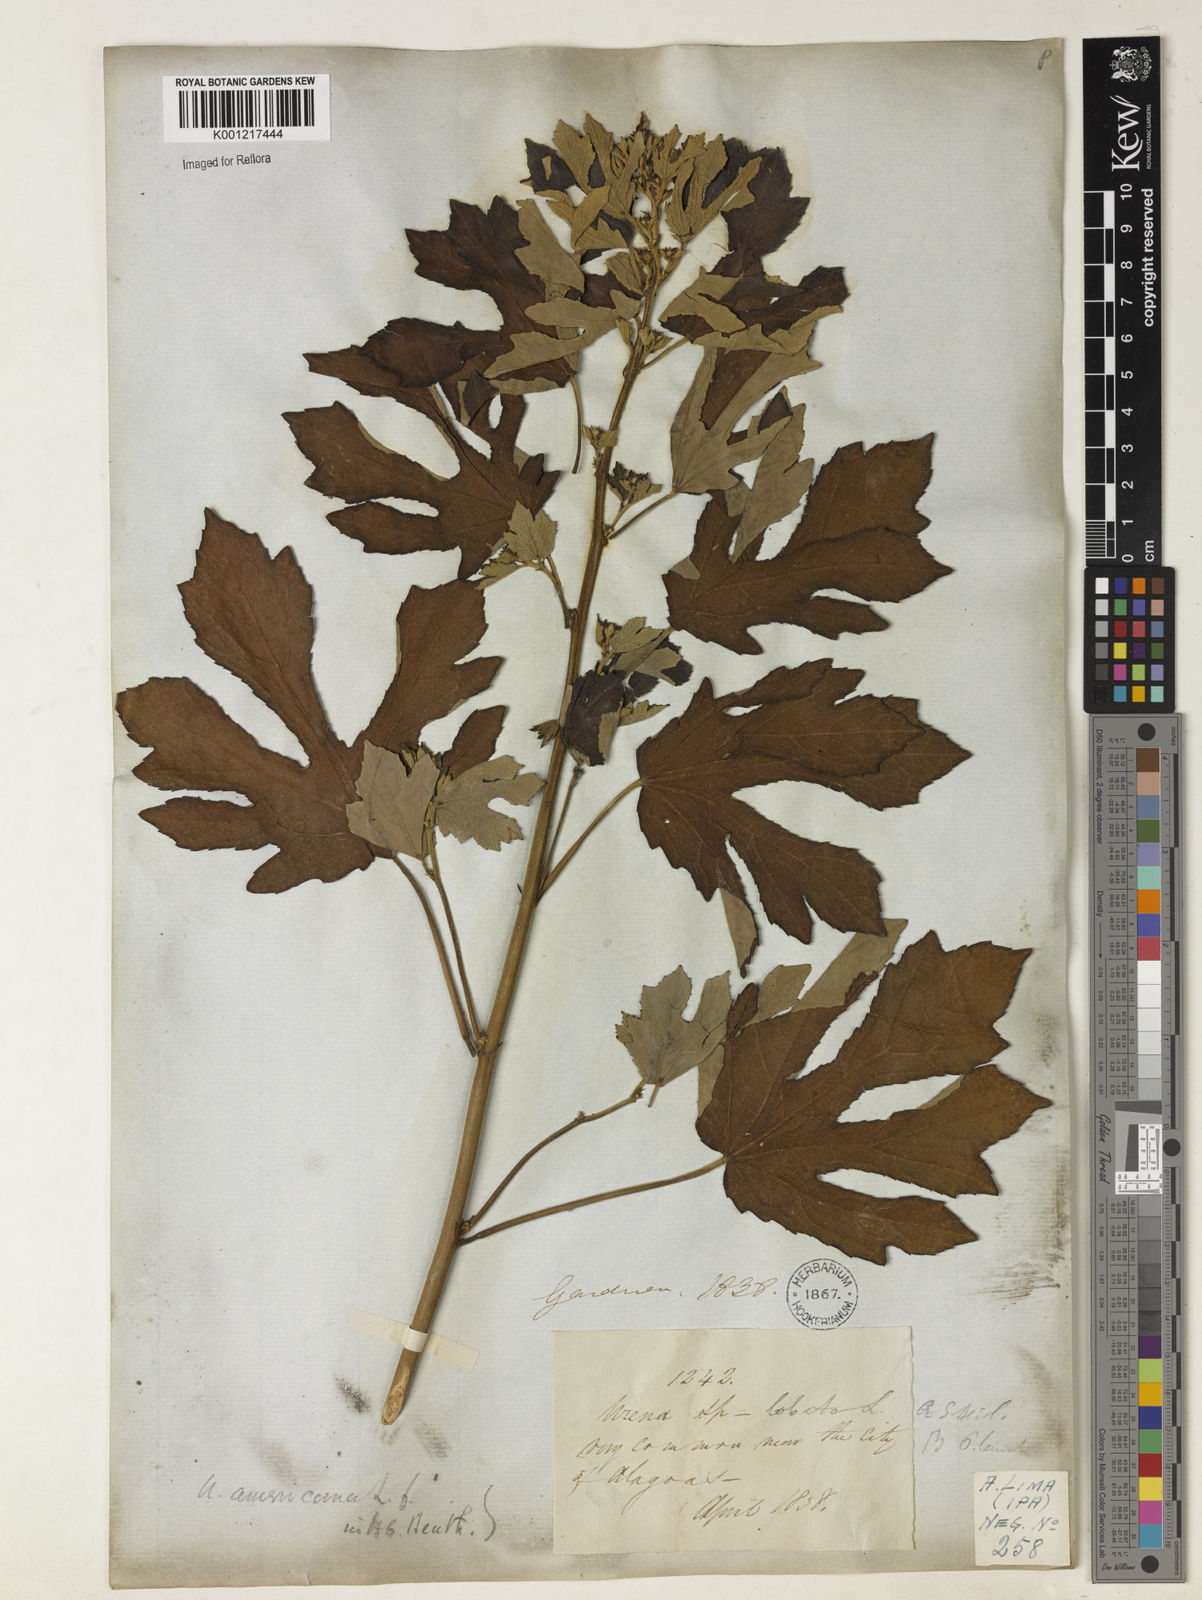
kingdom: Plantae
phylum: Tracheophyta
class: Magnoliopsida
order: Malvales
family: Malvaceae
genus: Urena
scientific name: Urena lobata
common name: Caesarweed
